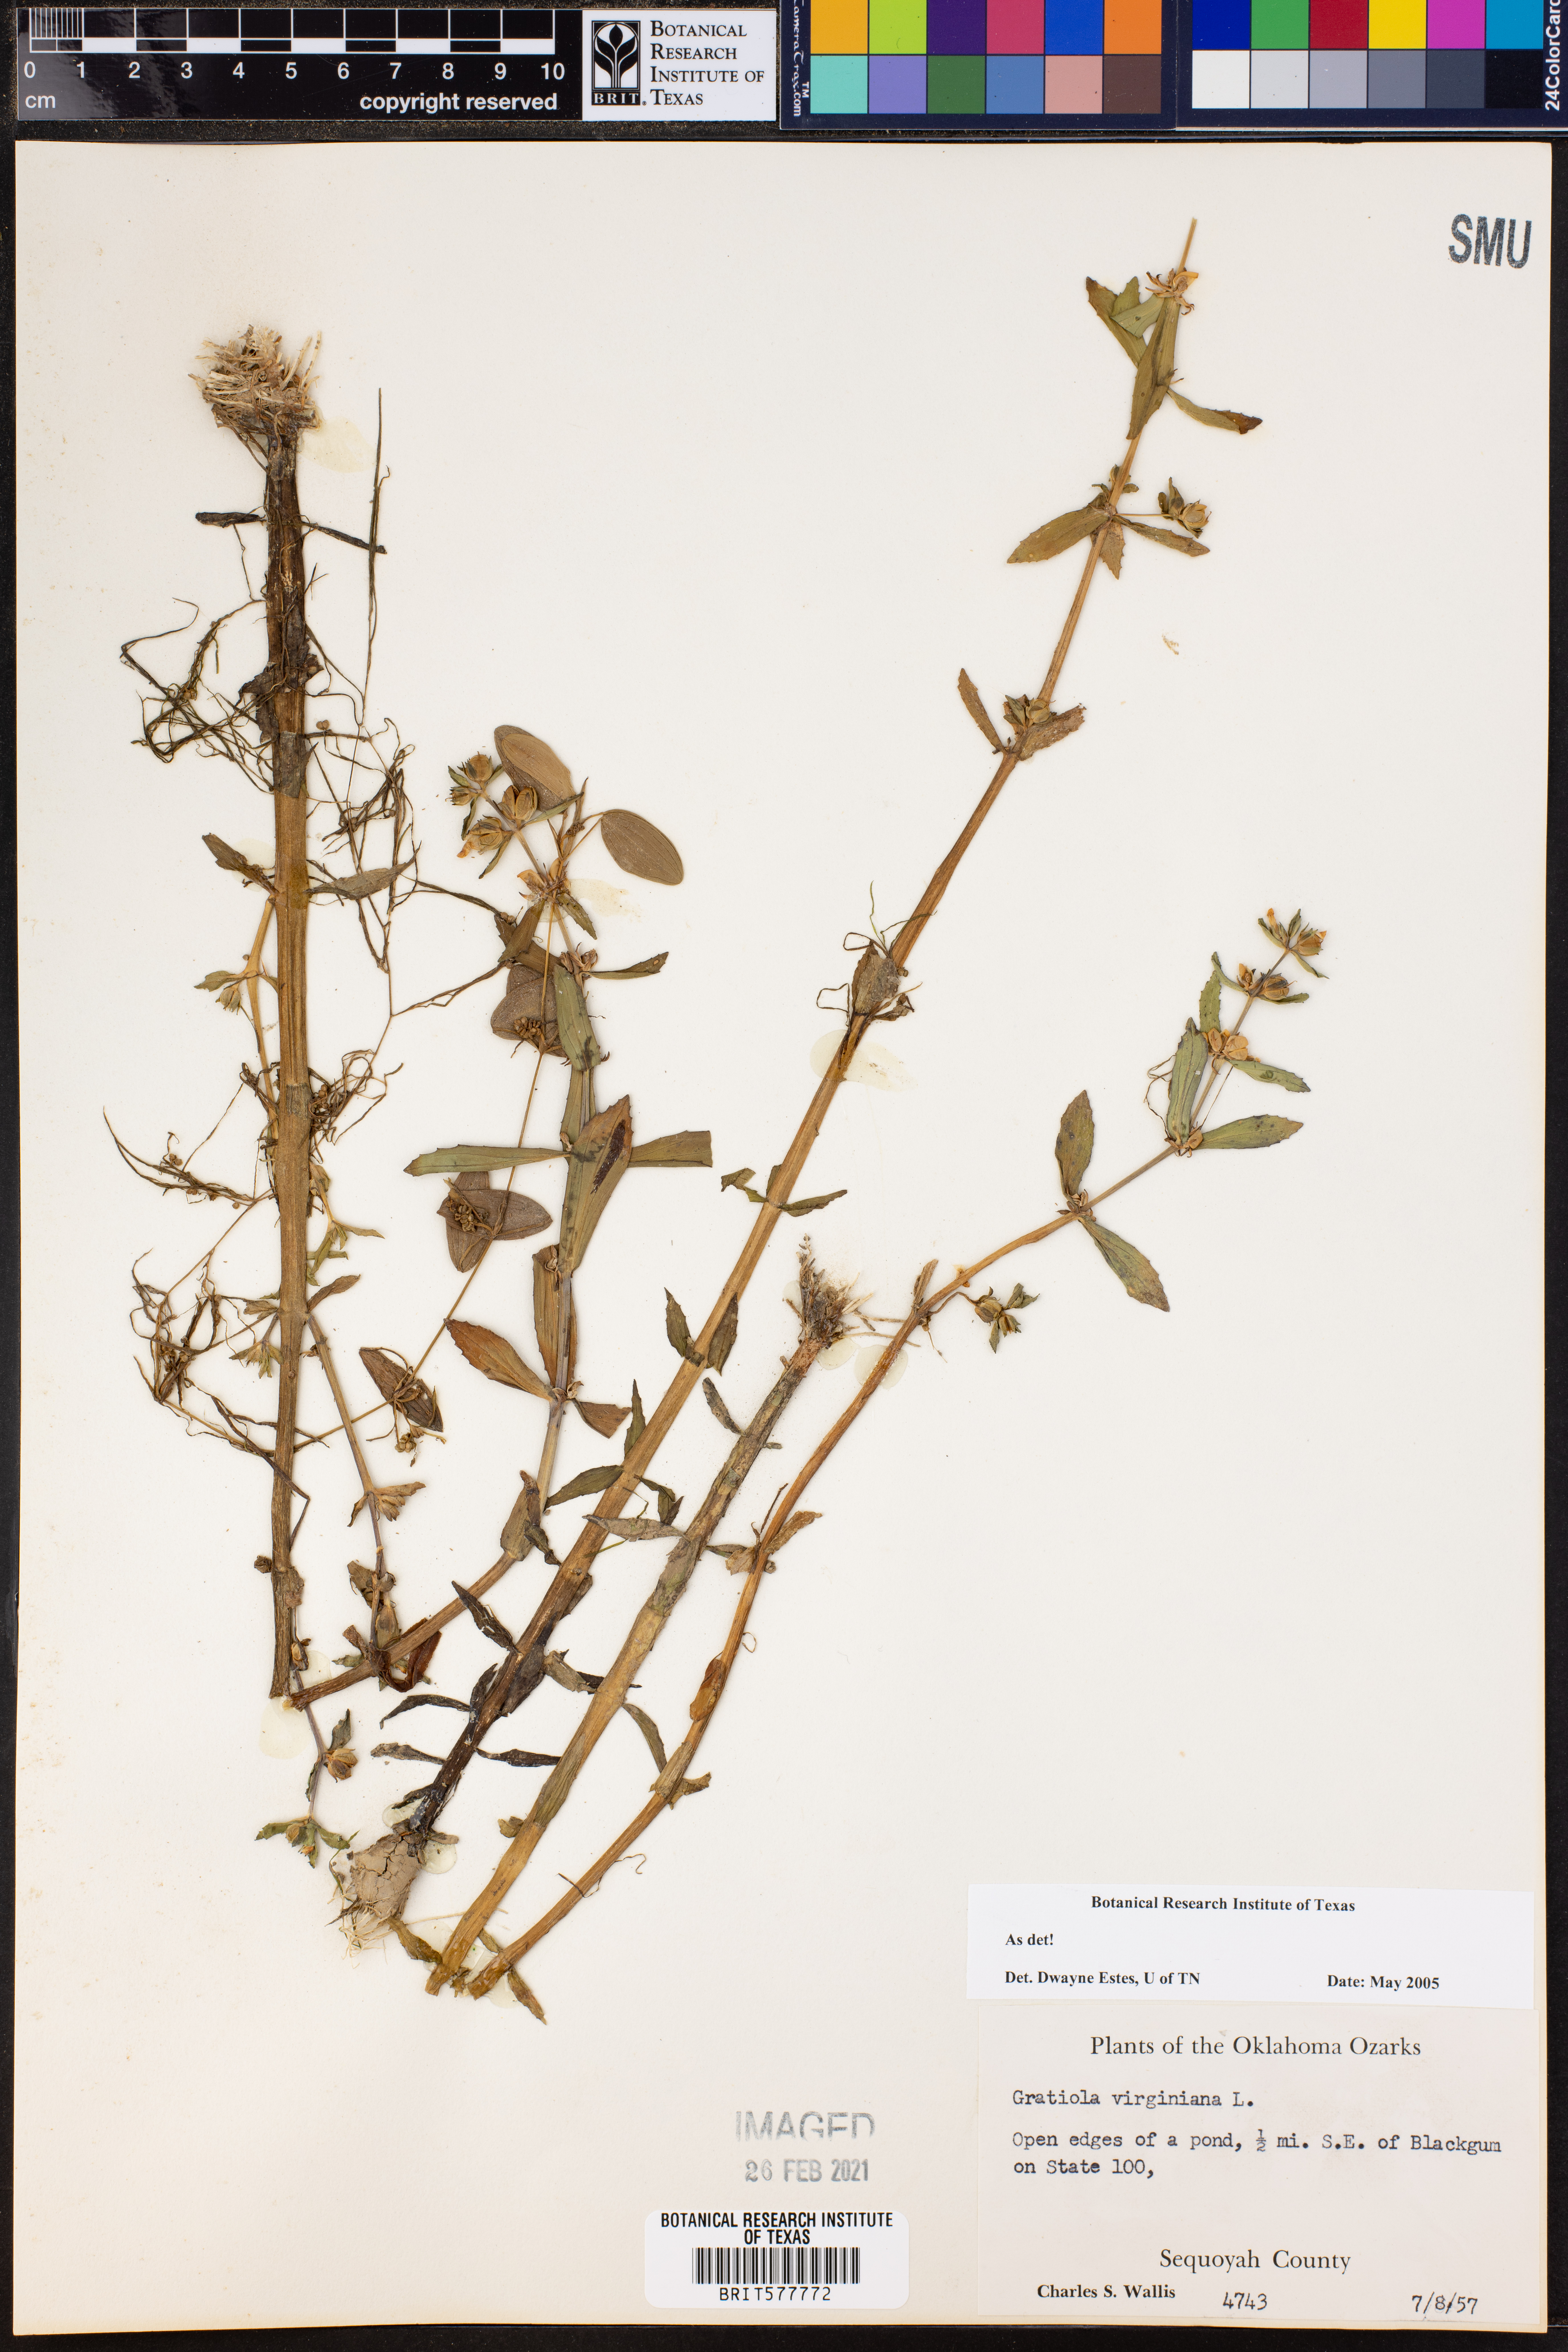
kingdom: Plantae
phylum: Tracheophyta
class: Magnoliopsida
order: Lamiales
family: Plantaginaceae
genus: Gratiola
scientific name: Gratiola virginiana
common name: Roundfruit hedgehyssop
